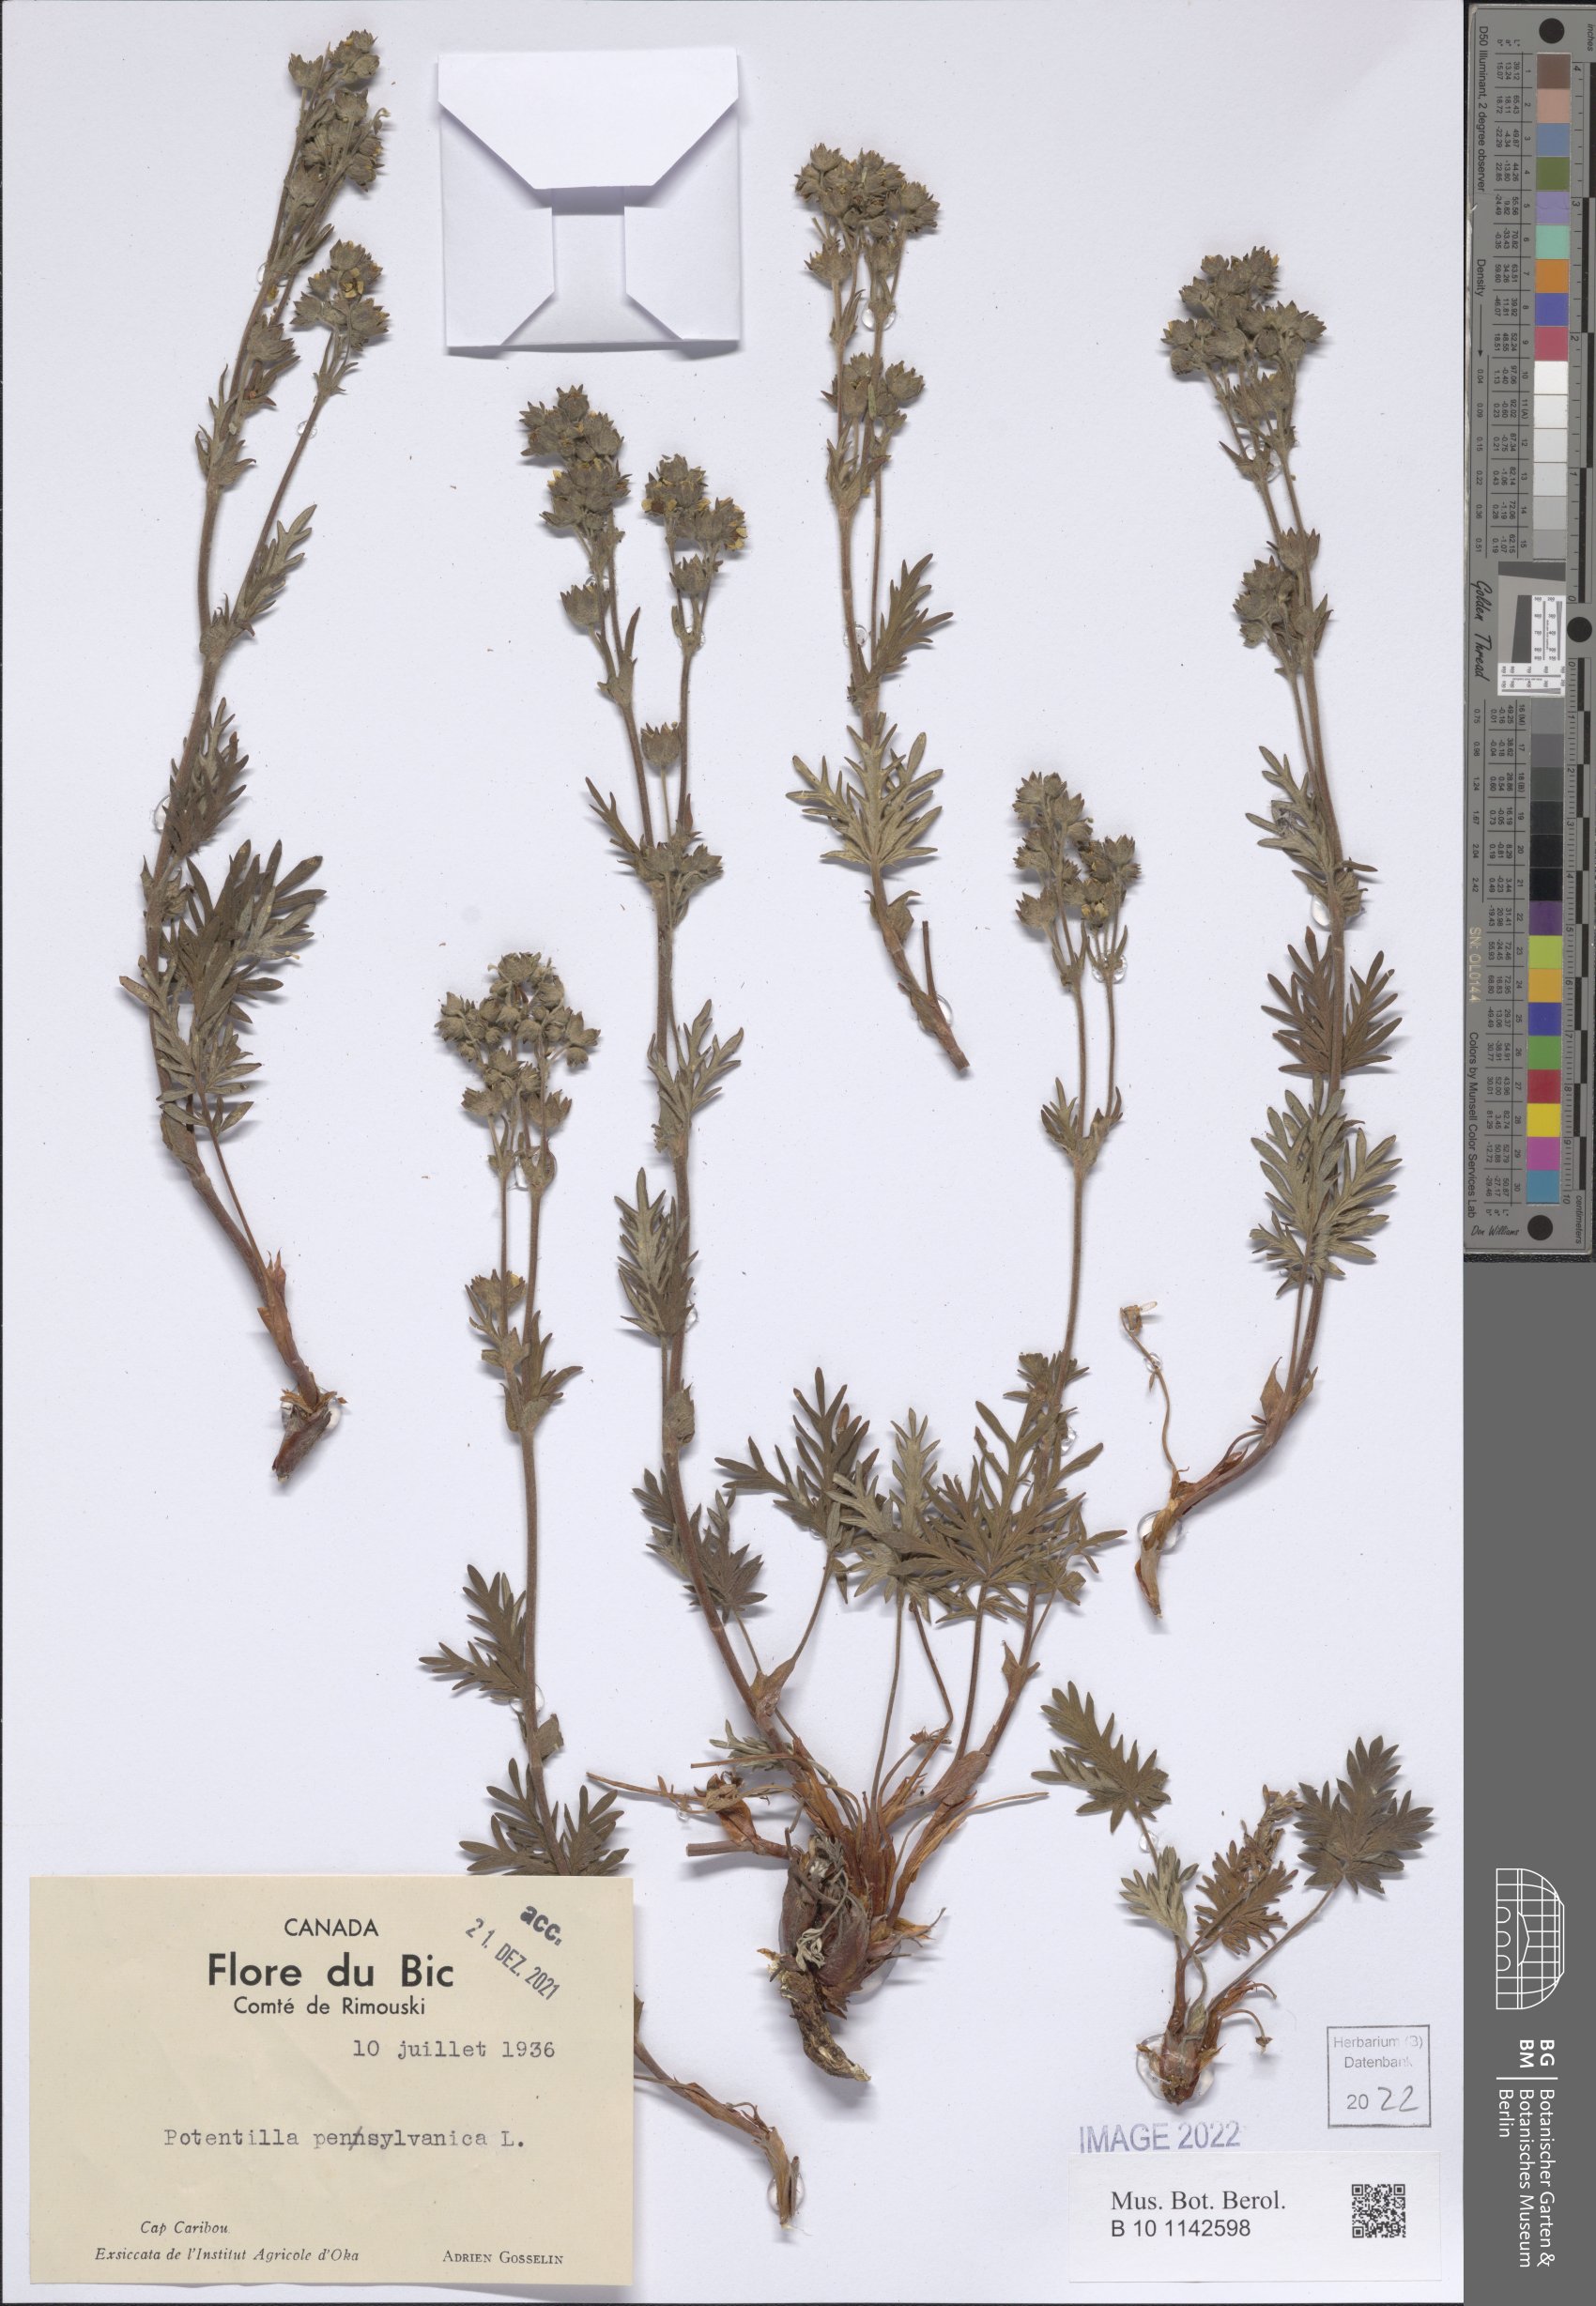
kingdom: Plantae
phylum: Tracheophyta
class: Magnoliopsida
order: Rosales
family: Rosaceae
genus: Potentilla
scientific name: Potentilla pensylvanica
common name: Pennsylvania cinquefoil
